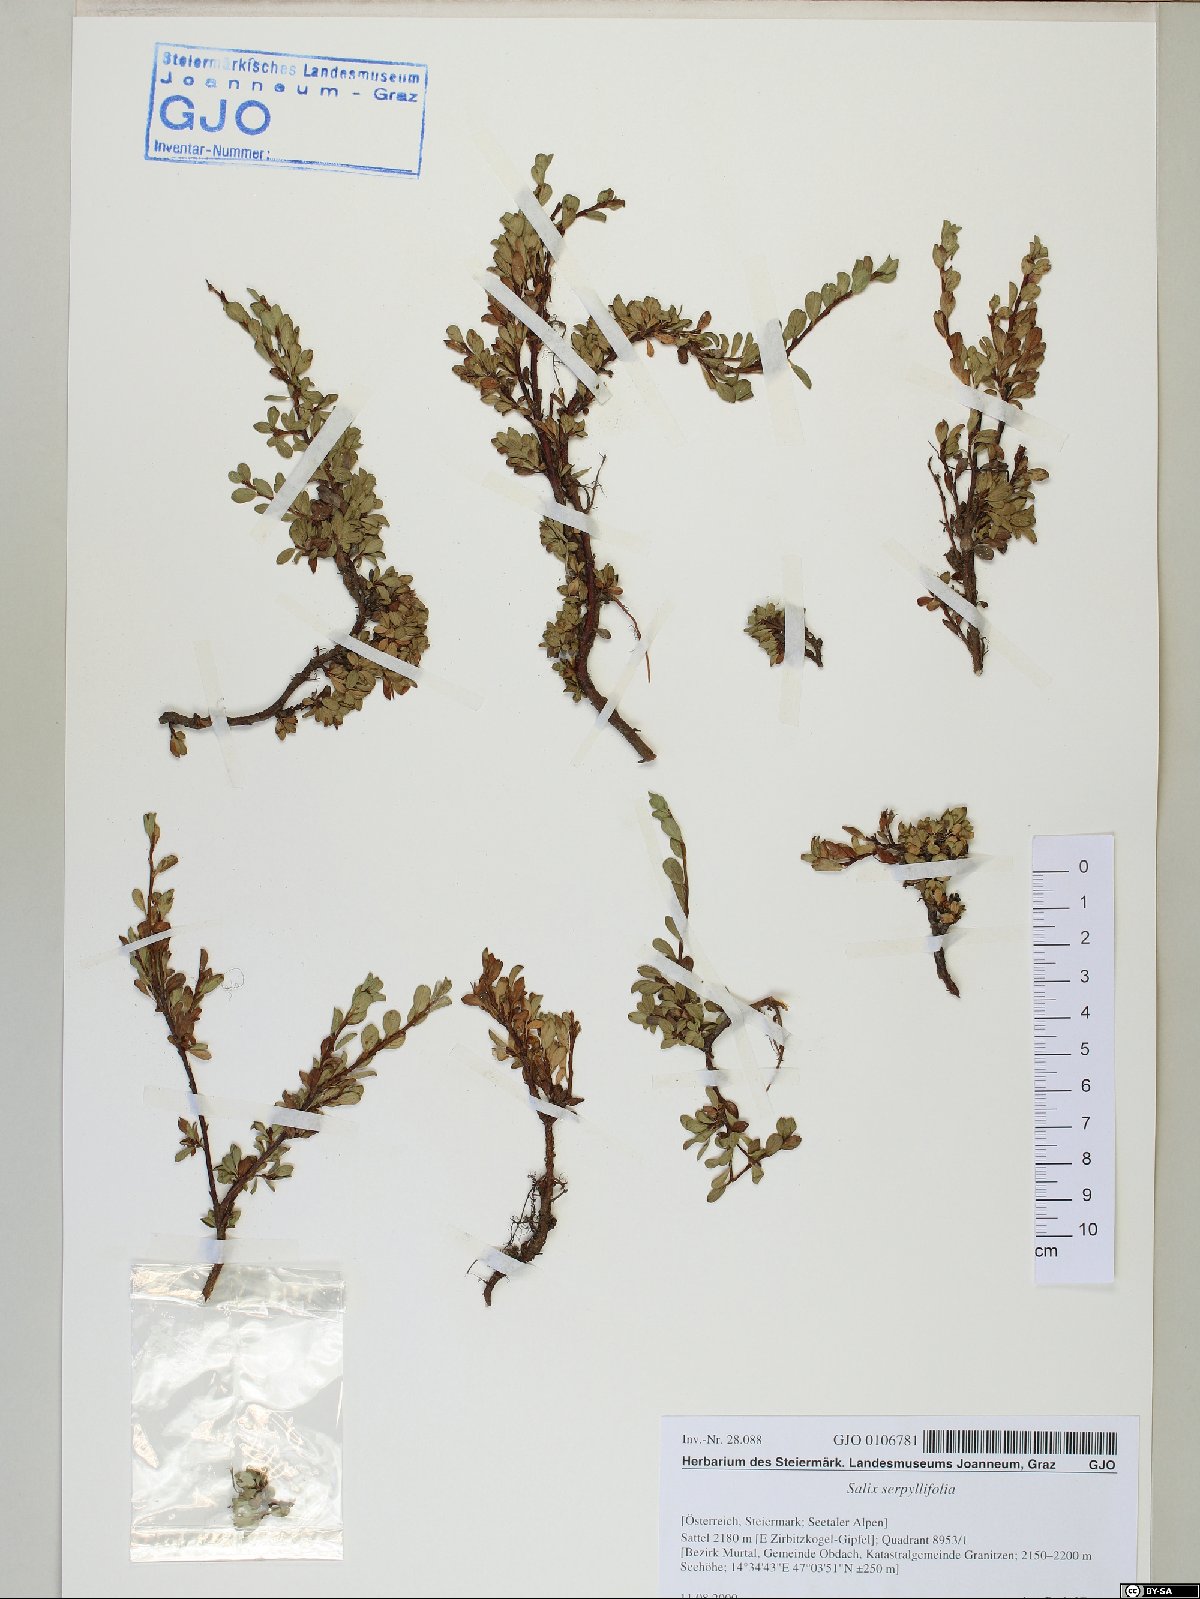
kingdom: Plantae
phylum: Tracheophyta
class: Magnoliopsida
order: Malpighiales
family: Salicaceae
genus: Salix
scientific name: Salix serpillifolia
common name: Thyme-leaf willow
